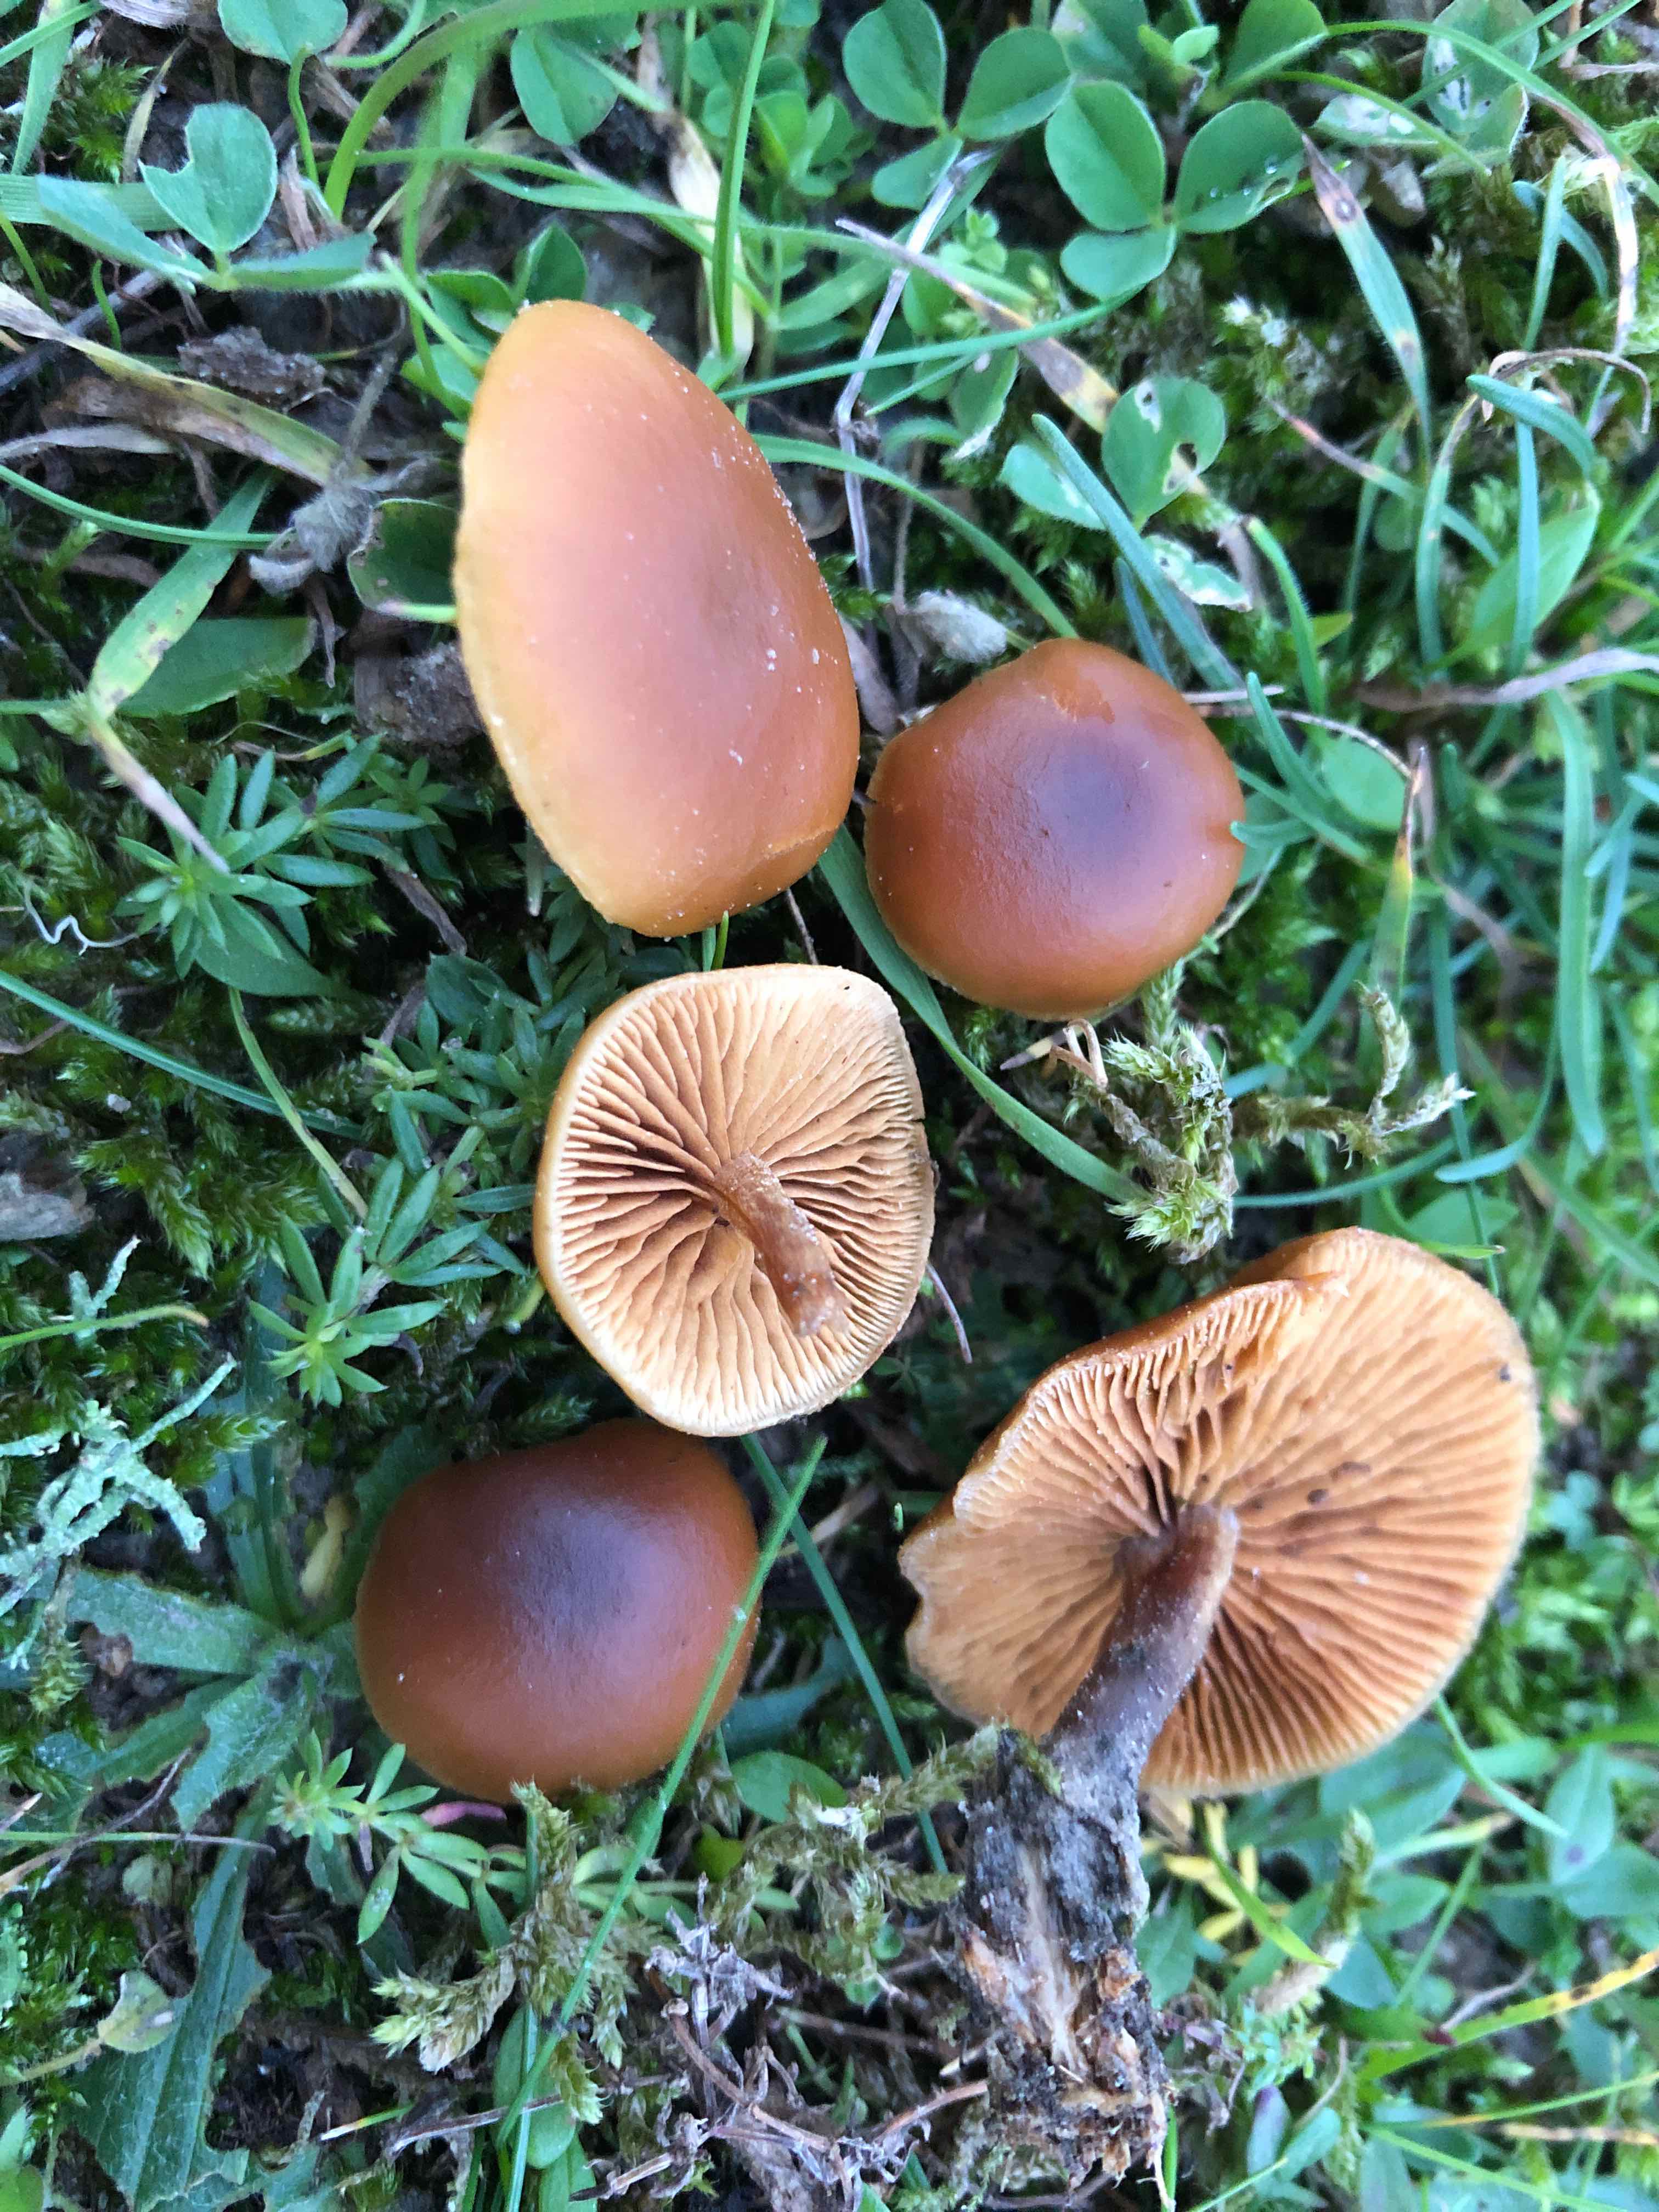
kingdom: Fungi
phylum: Basidiomycota
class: Agaricomycetes
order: Agaricales
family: Hymenogastraceae
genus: Galerina
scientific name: Galerina esteve-raventosii
